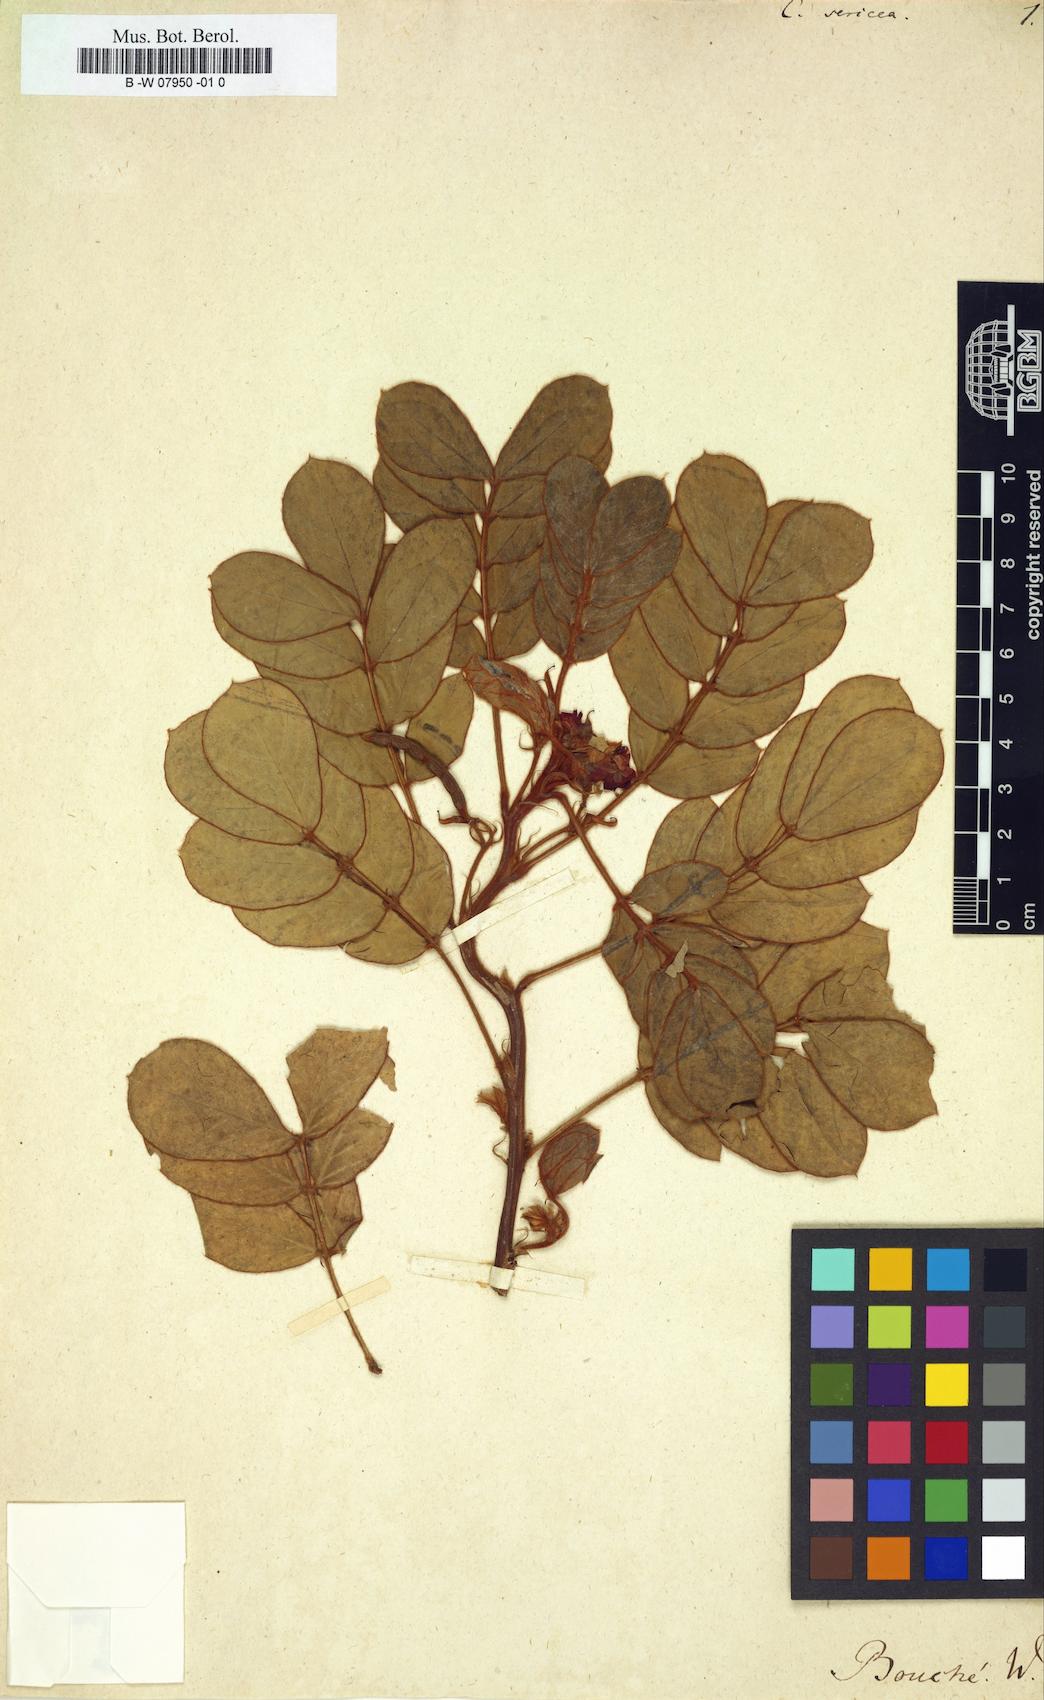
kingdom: Plantae
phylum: Tracheophyta
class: Magnoliopsida
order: Fabales
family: Fabaceae
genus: Senna
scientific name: Senna uniflora
